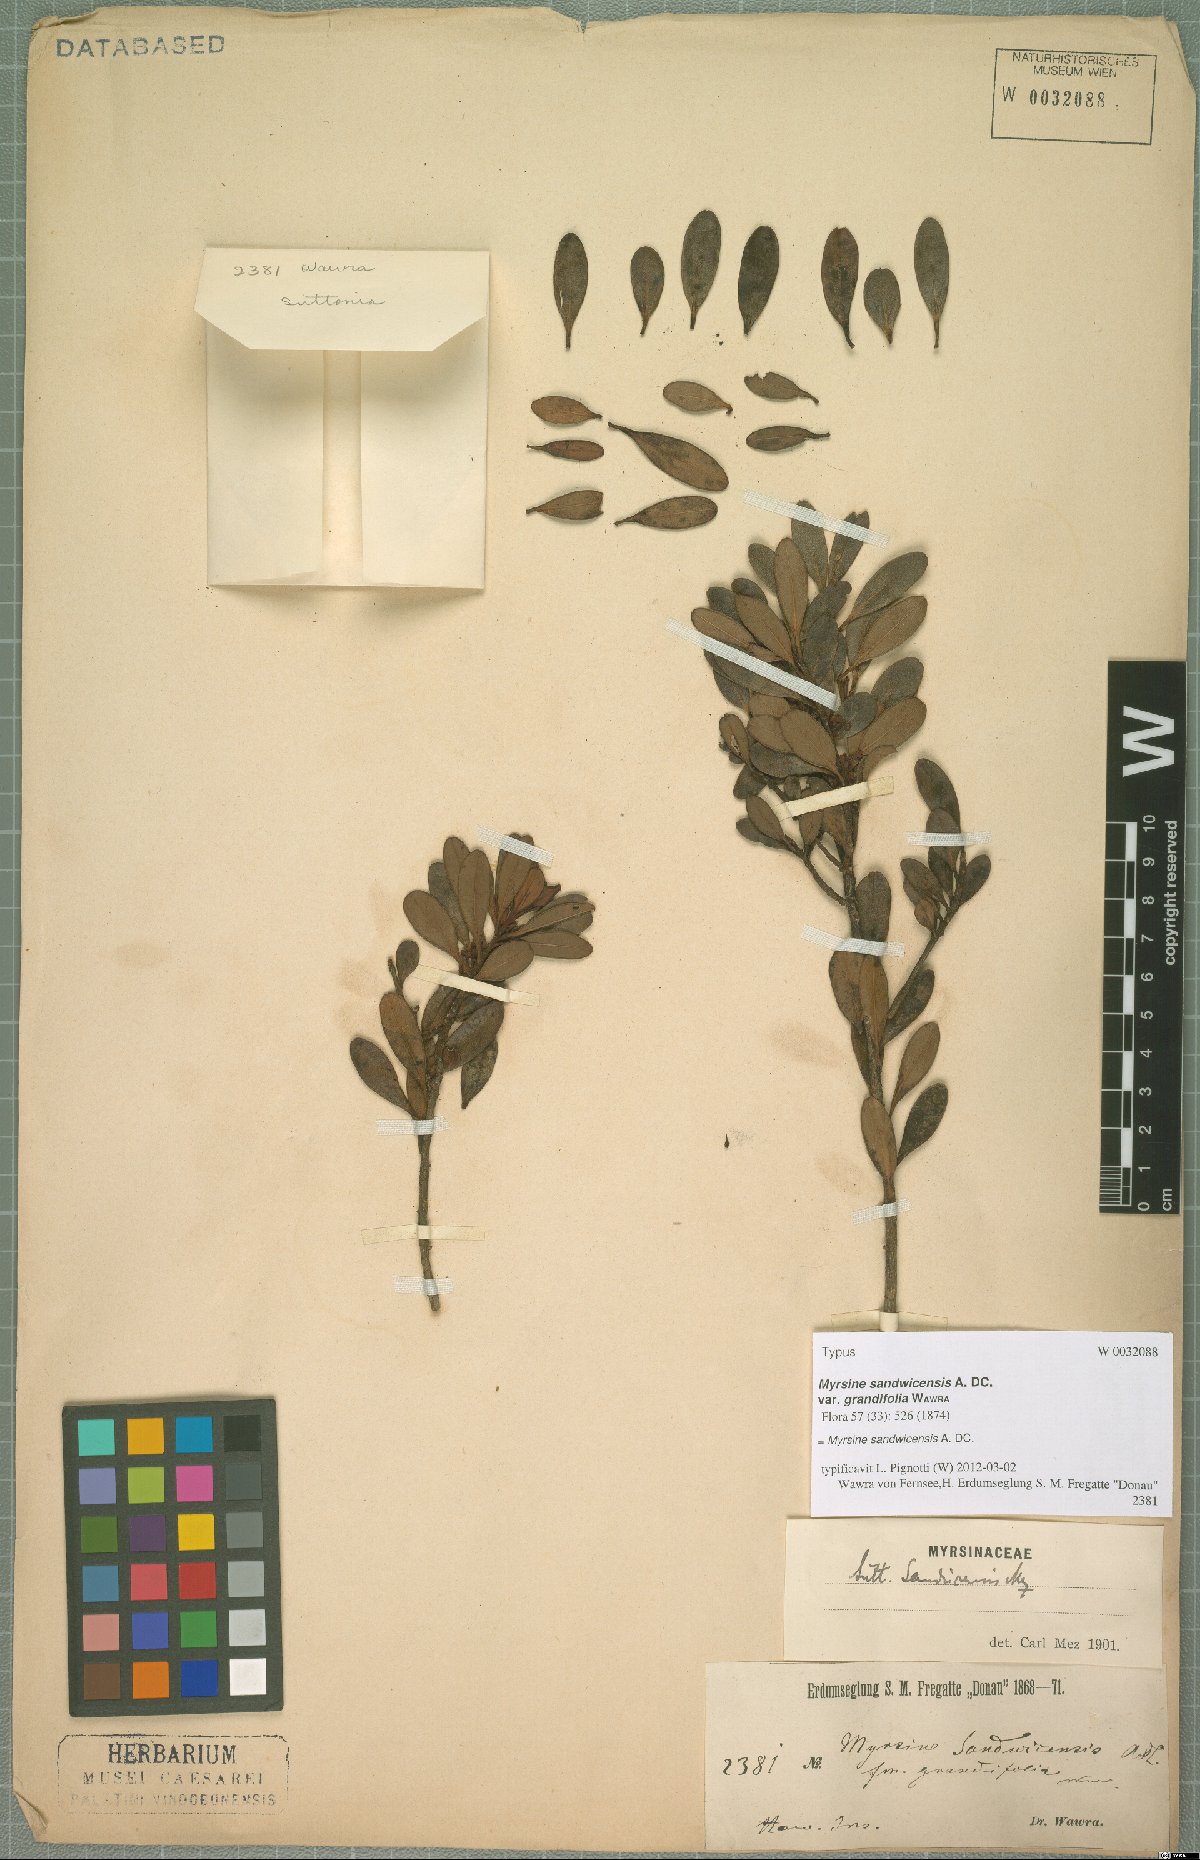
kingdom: Plantae
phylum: Tracheophyta
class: Magnoliopsida
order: Ericales
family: Primulaceae
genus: Myrsine
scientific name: Myrsine sandwicensis
